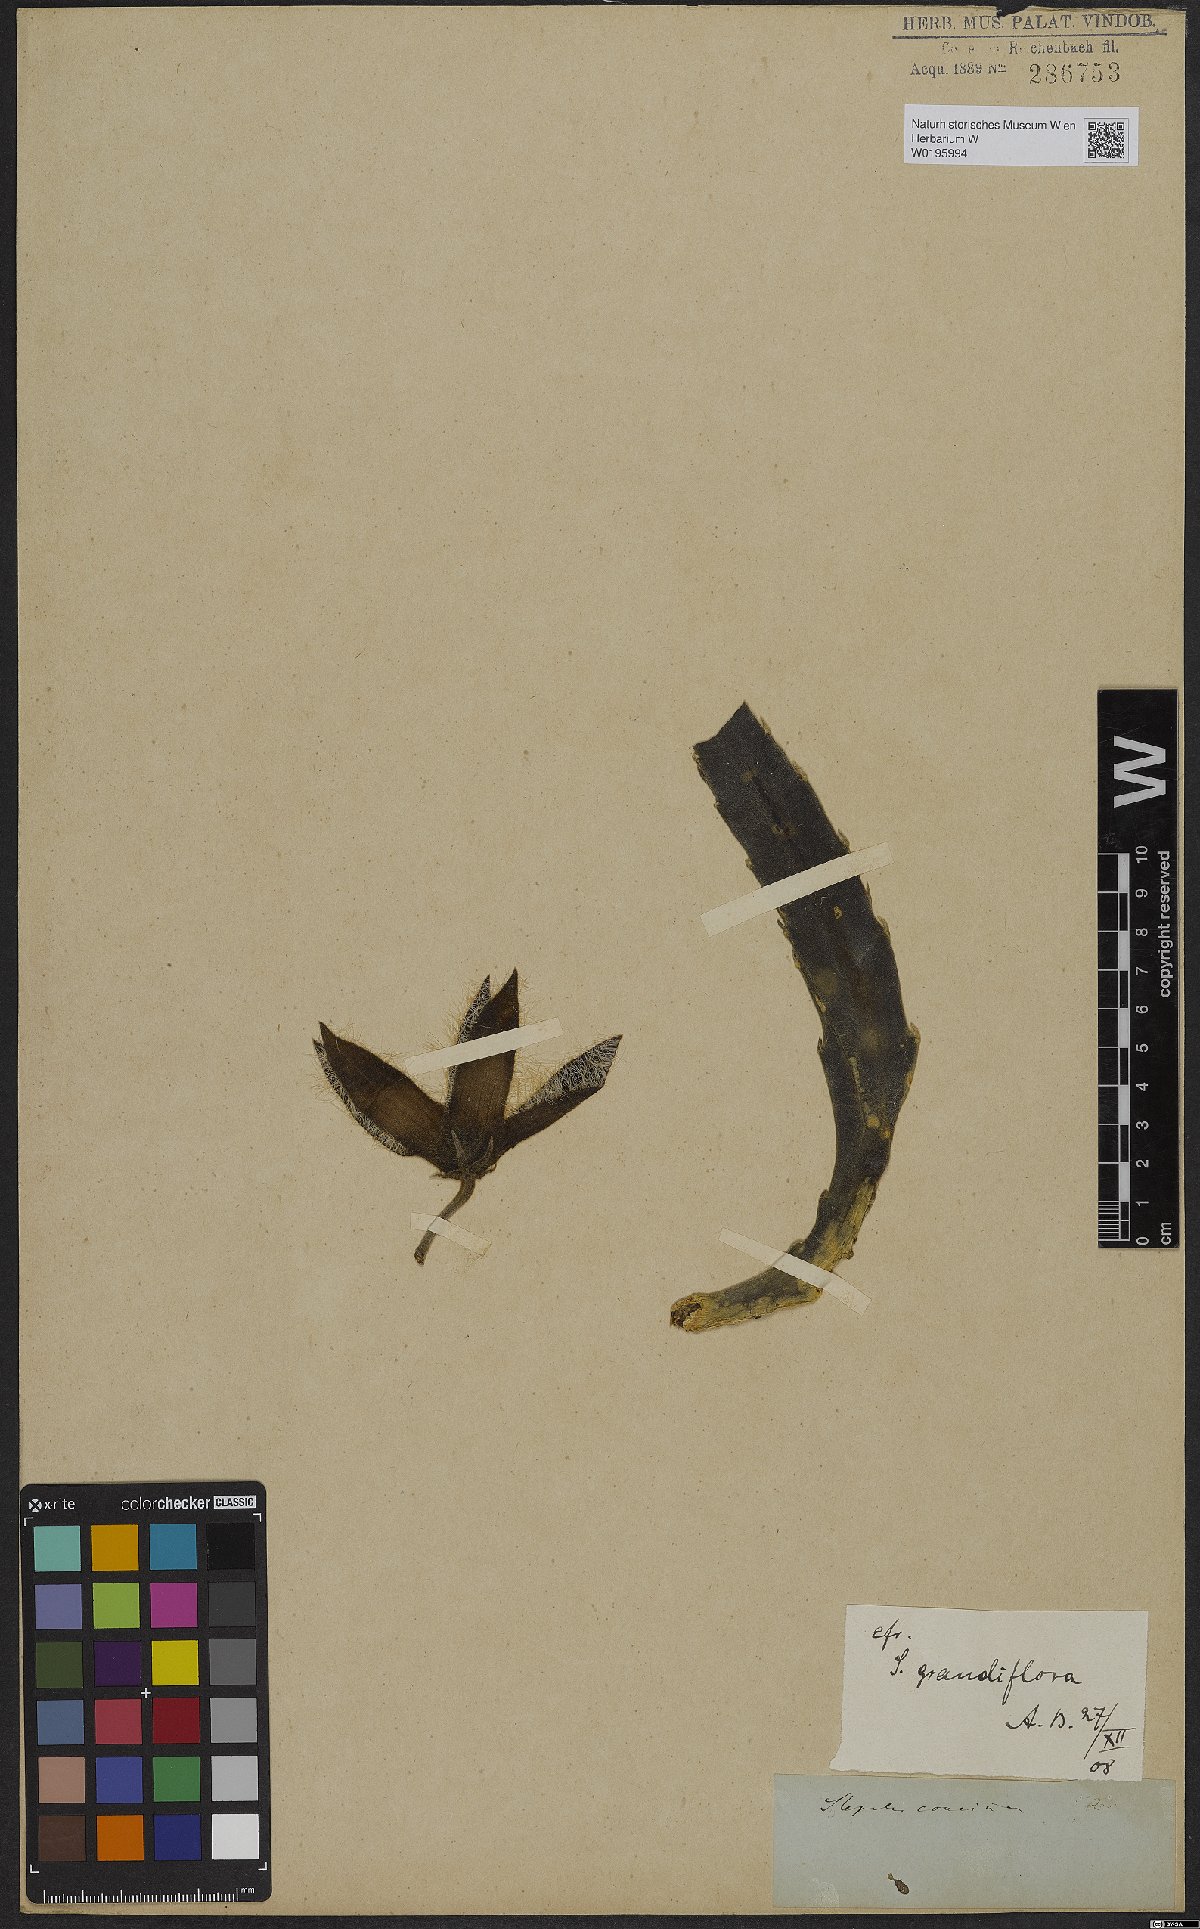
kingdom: Plantae
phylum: Tracheophyta
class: Magnoliopsida
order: Gentianales
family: Apocynaceae
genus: Ceropegia
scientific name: Ceropegia grandiflora
